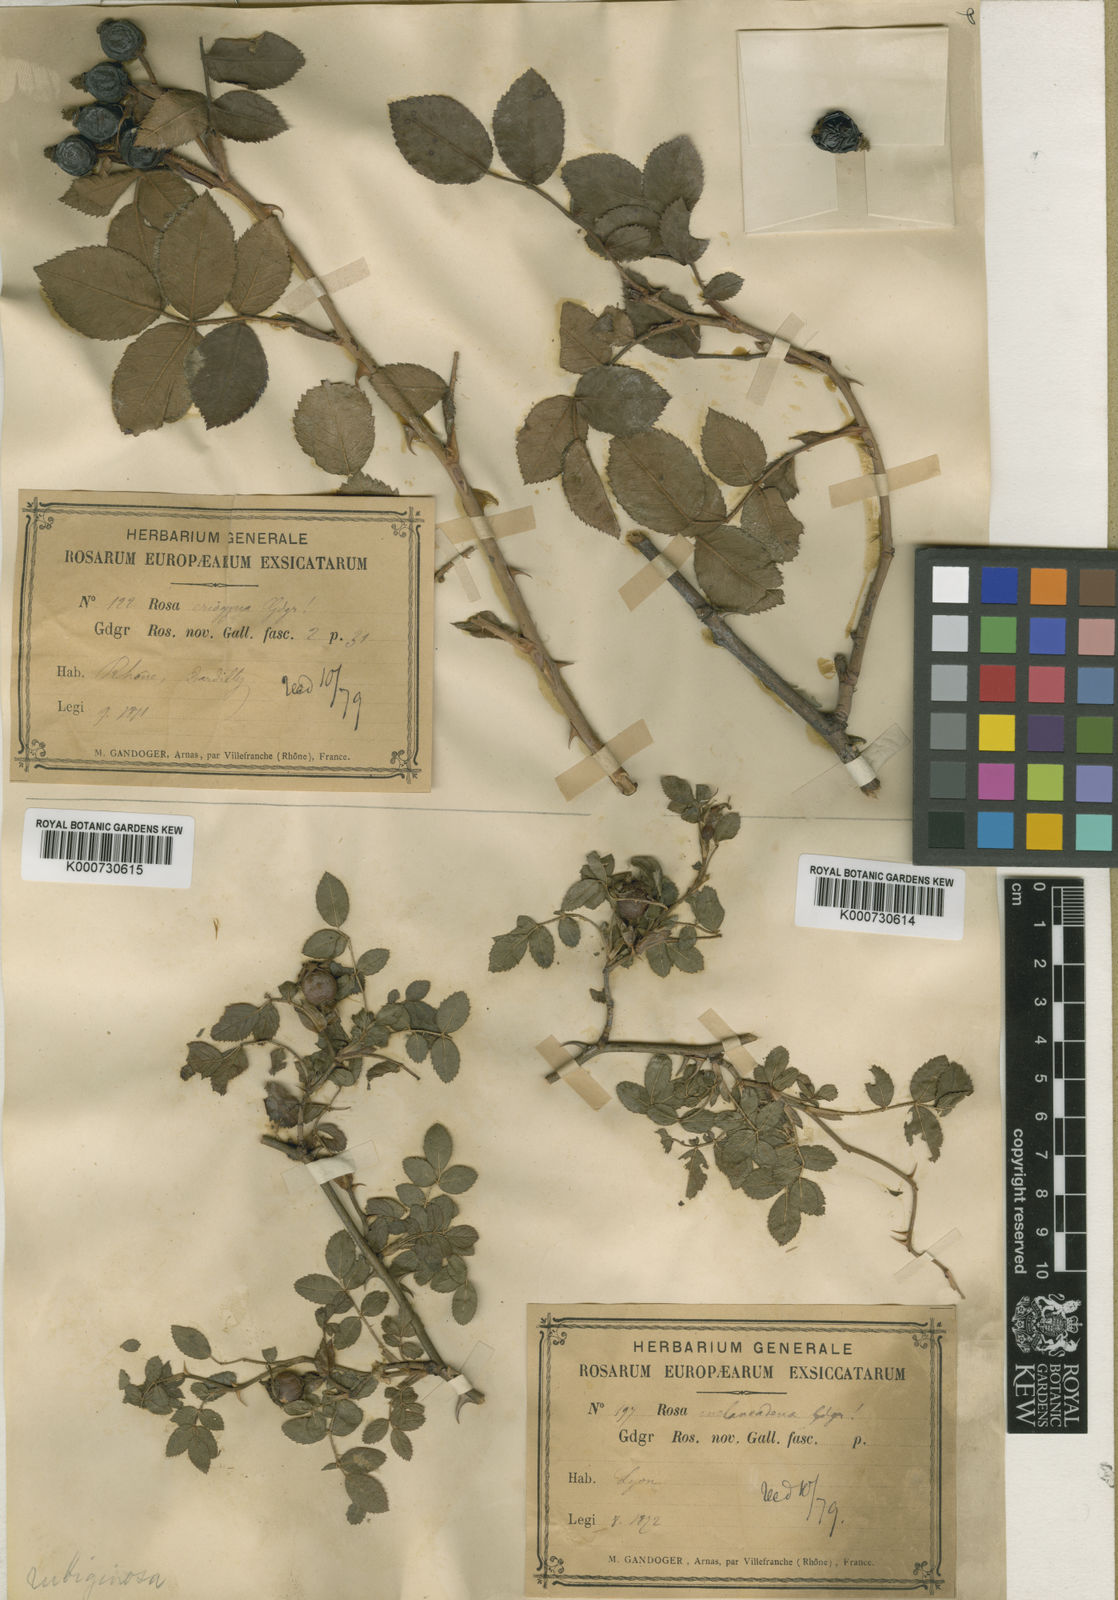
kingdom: Plantae
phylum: Tracheophyta
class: Magnoliopsida
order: Rosales
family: Rosaceae
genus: Rosa
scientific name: Rosa rubiginosa
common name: Sweet-briar
